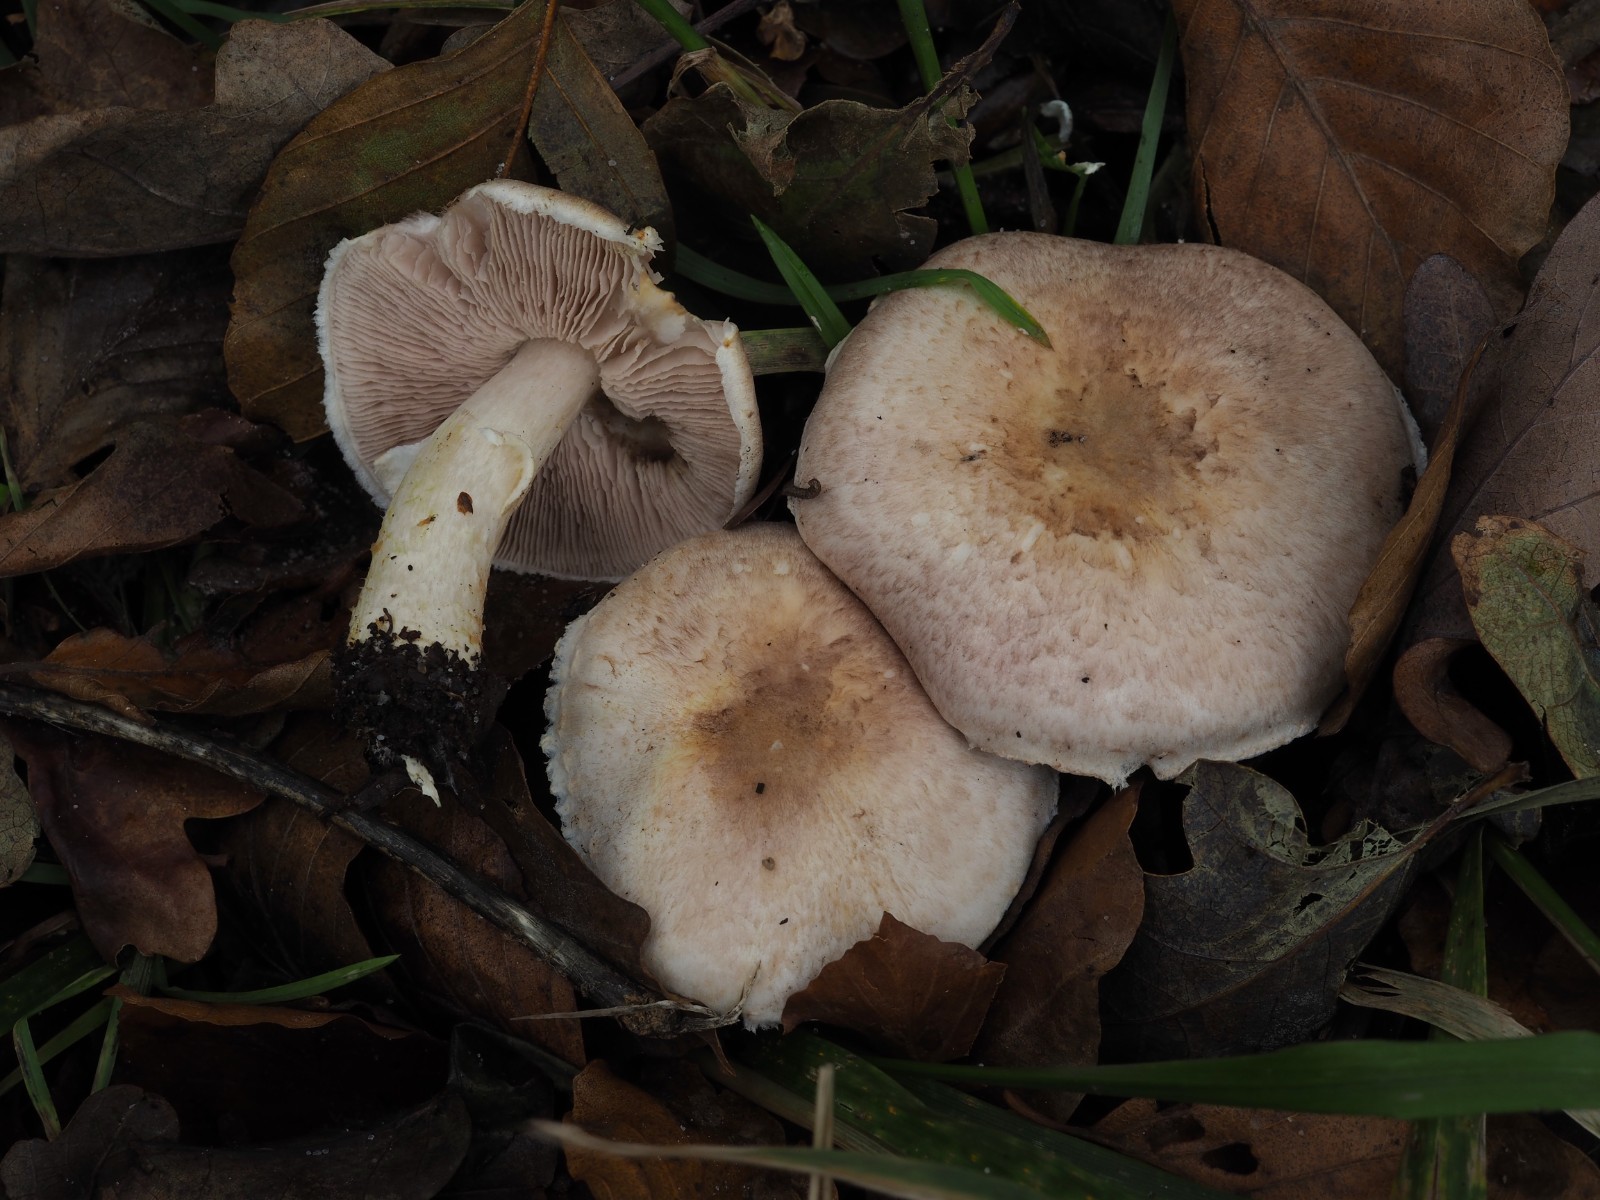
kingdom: Fungi
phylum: Basidiomycota
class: Agaricomycetes
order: Agaricales
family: Agaricaceae
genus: Agaricus
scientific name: Agaricus brunneolus
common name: purpur-champignon
